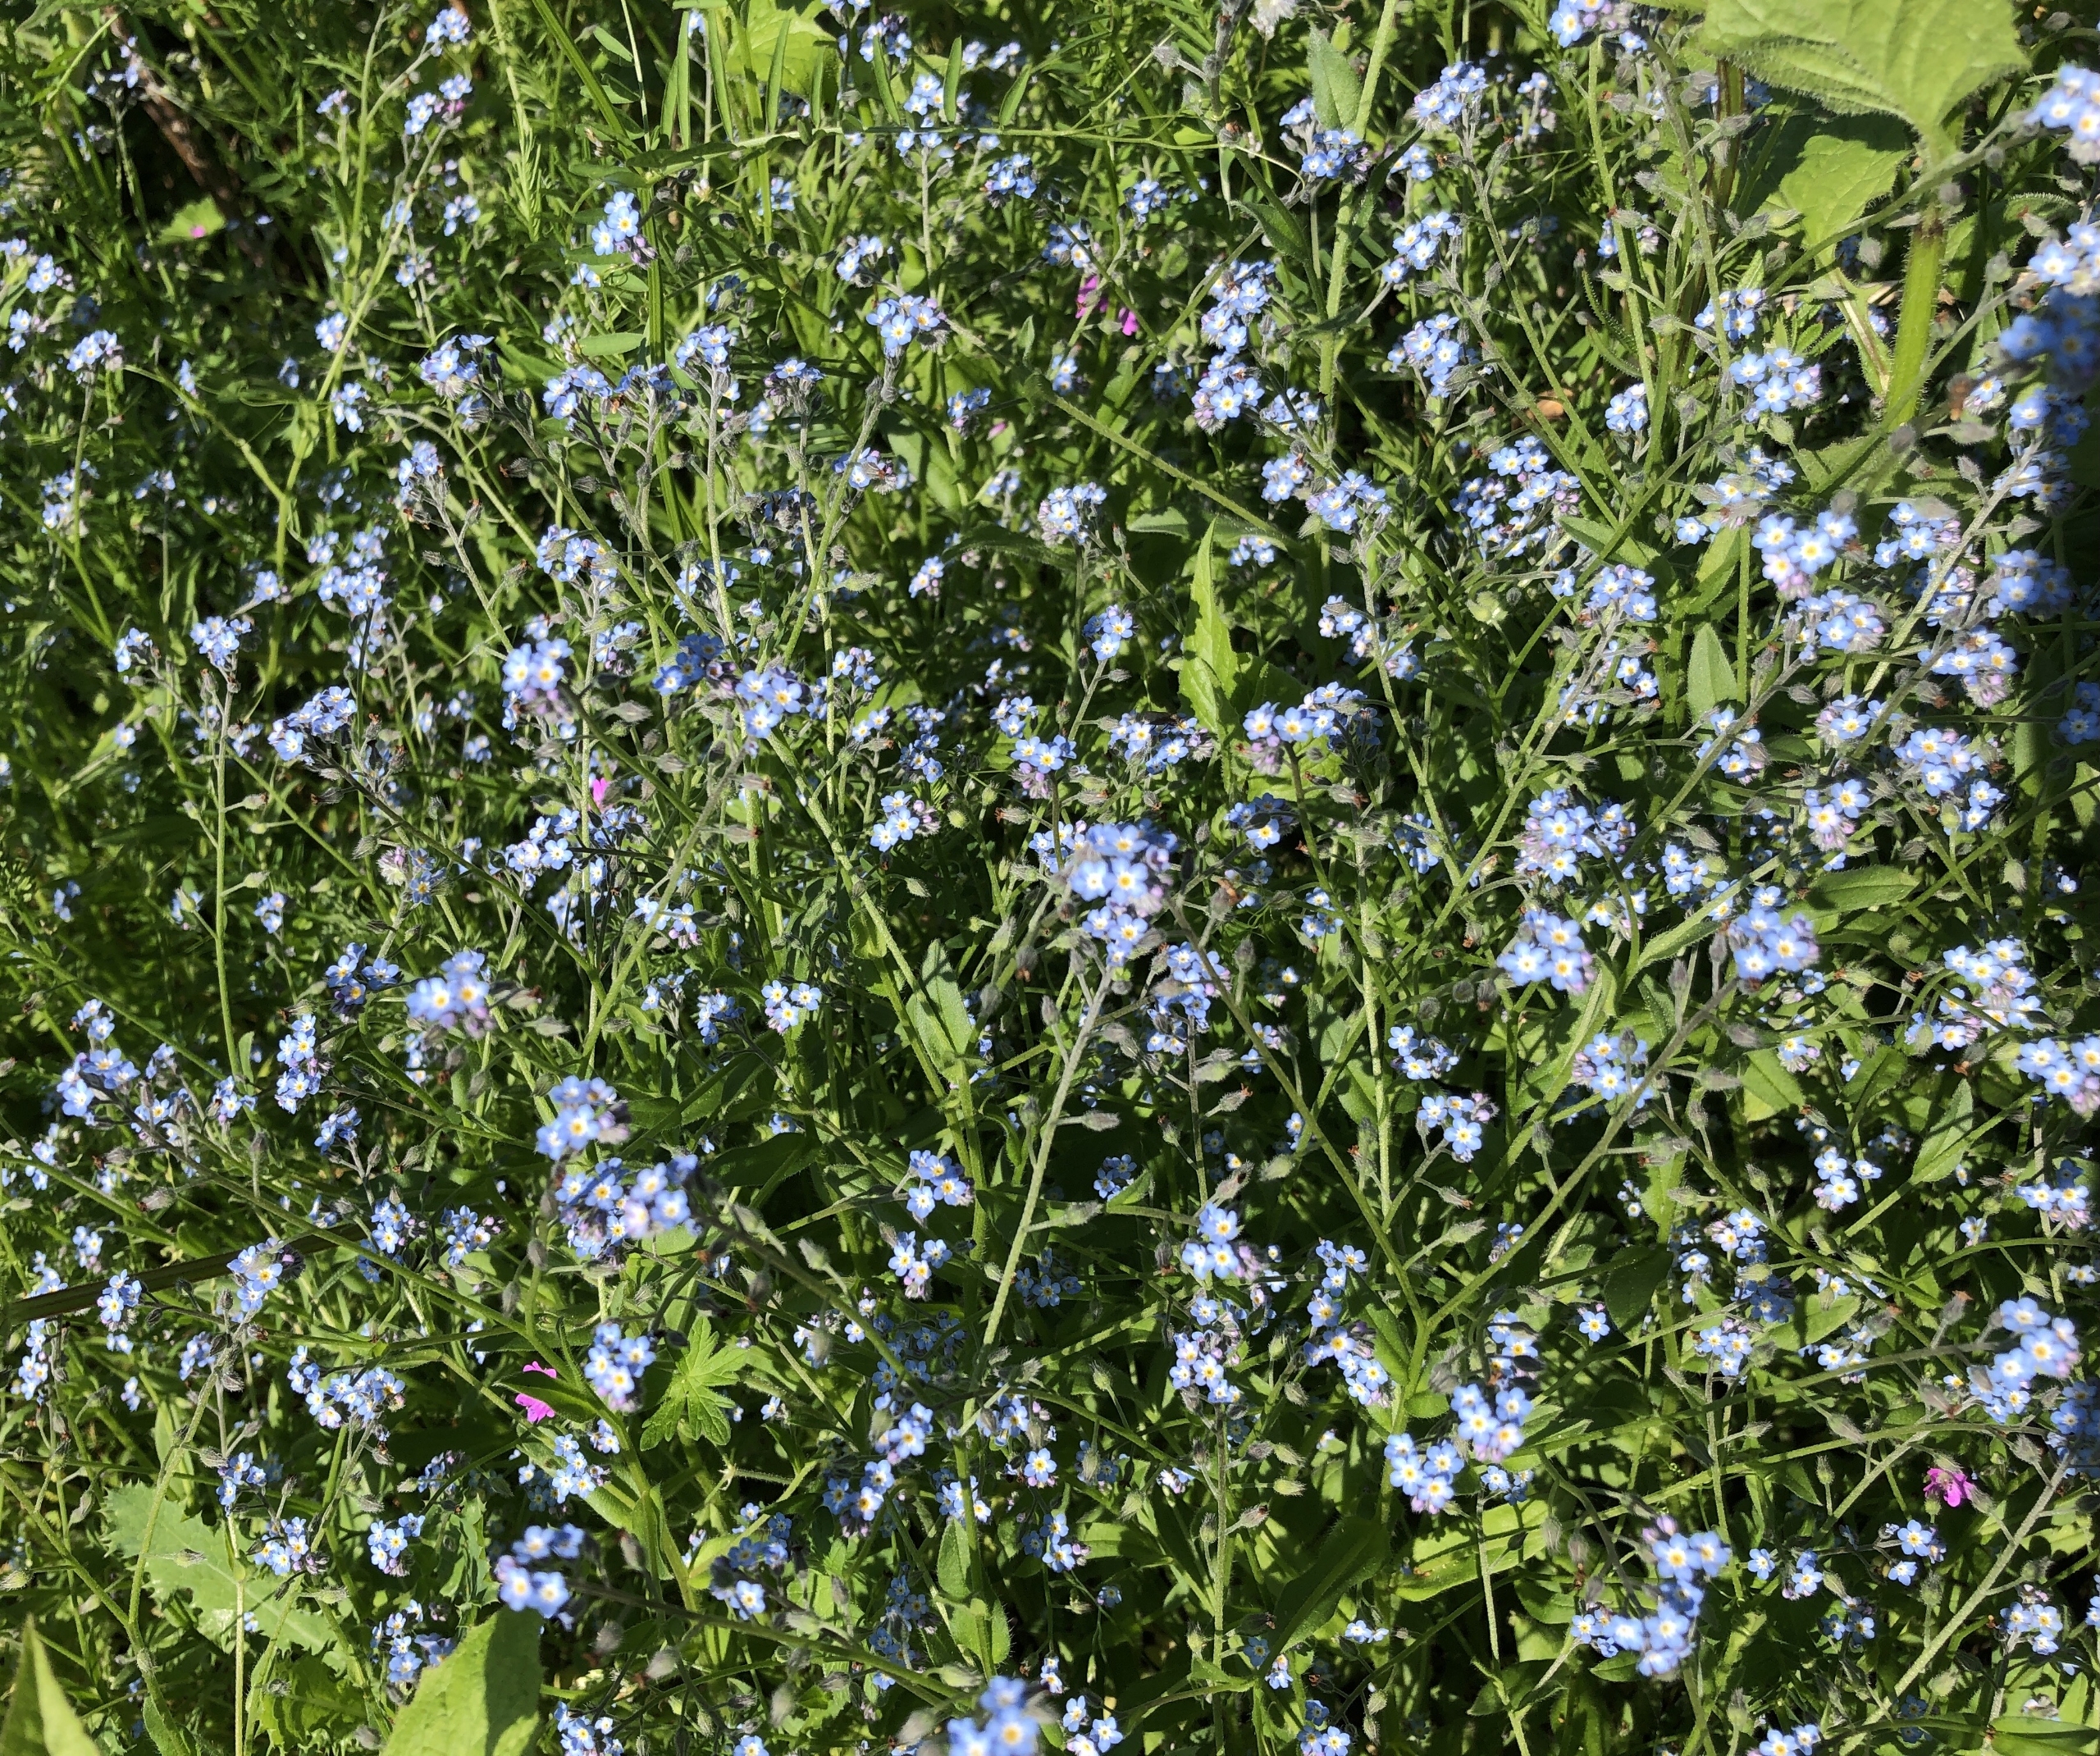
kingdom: Plantae
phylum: Tracheophyta
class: Magnoliopsida
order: Boraginales
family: Boraginaceae
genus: Myosotis
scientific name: Myosotis arvensis
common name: Mark-forglemmigej
